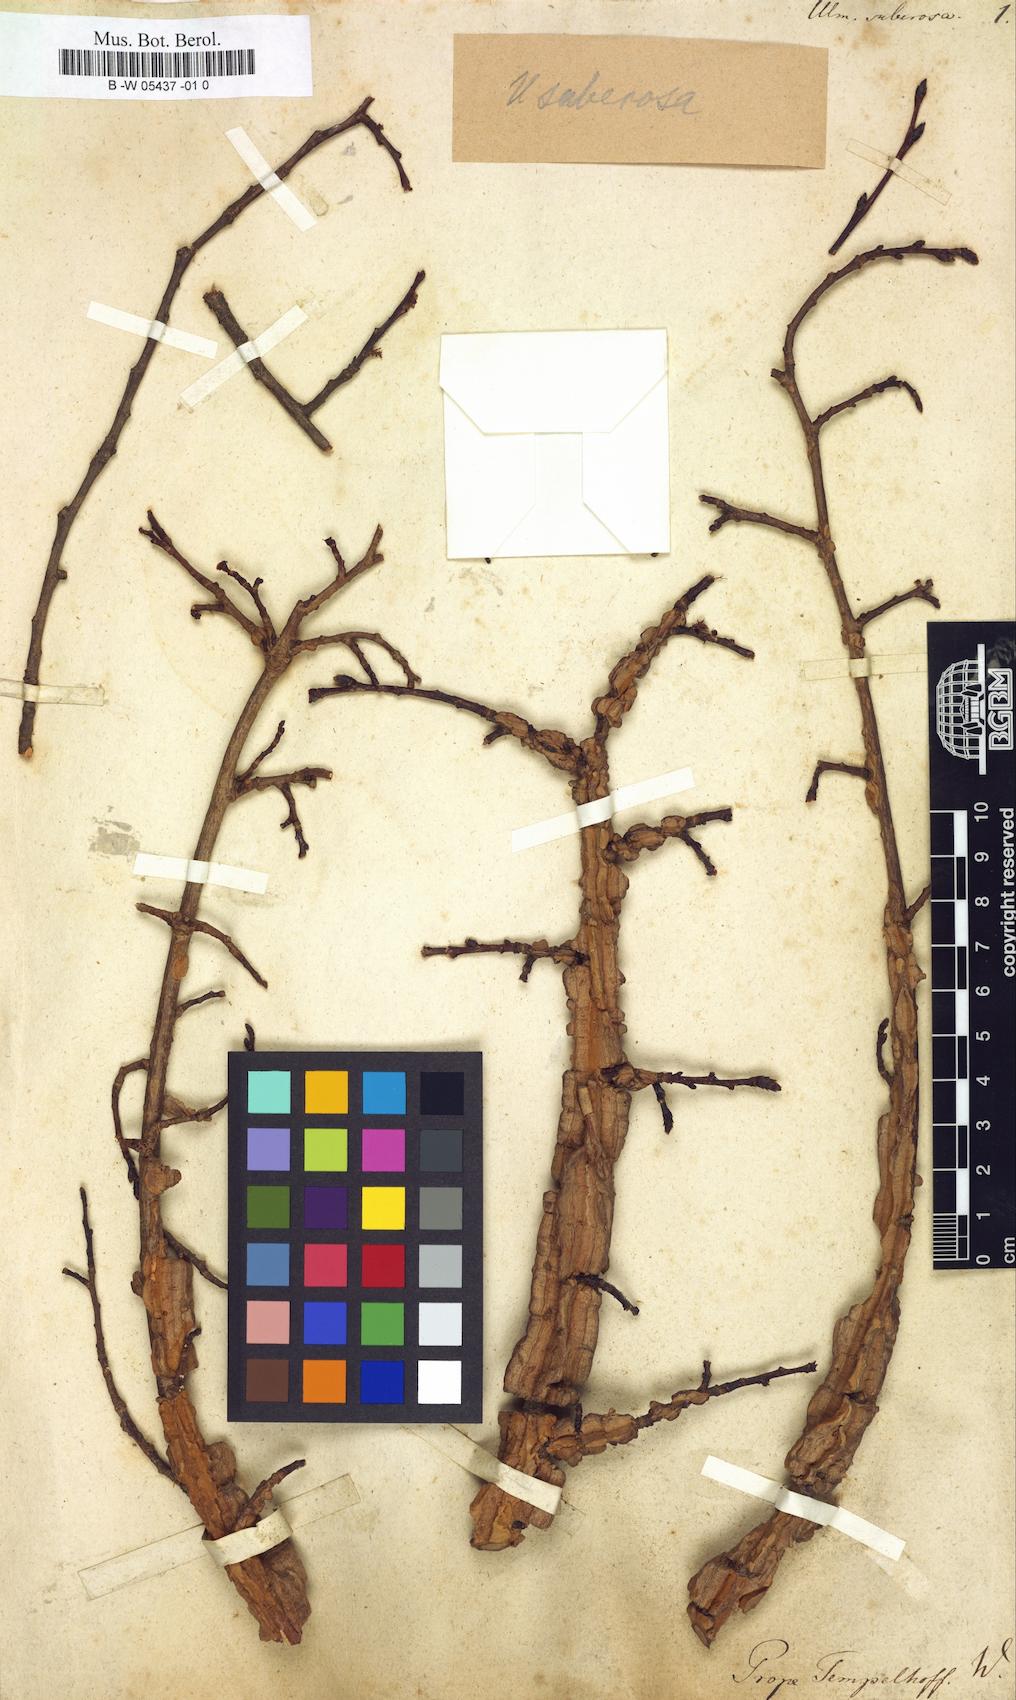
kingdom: Plantae
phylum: Tracheophyta
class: Magnoliopsida
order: Rosales
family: Ulmaceae
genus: Ulmus
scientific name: Ulmus minor
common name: Small-leaved elm
